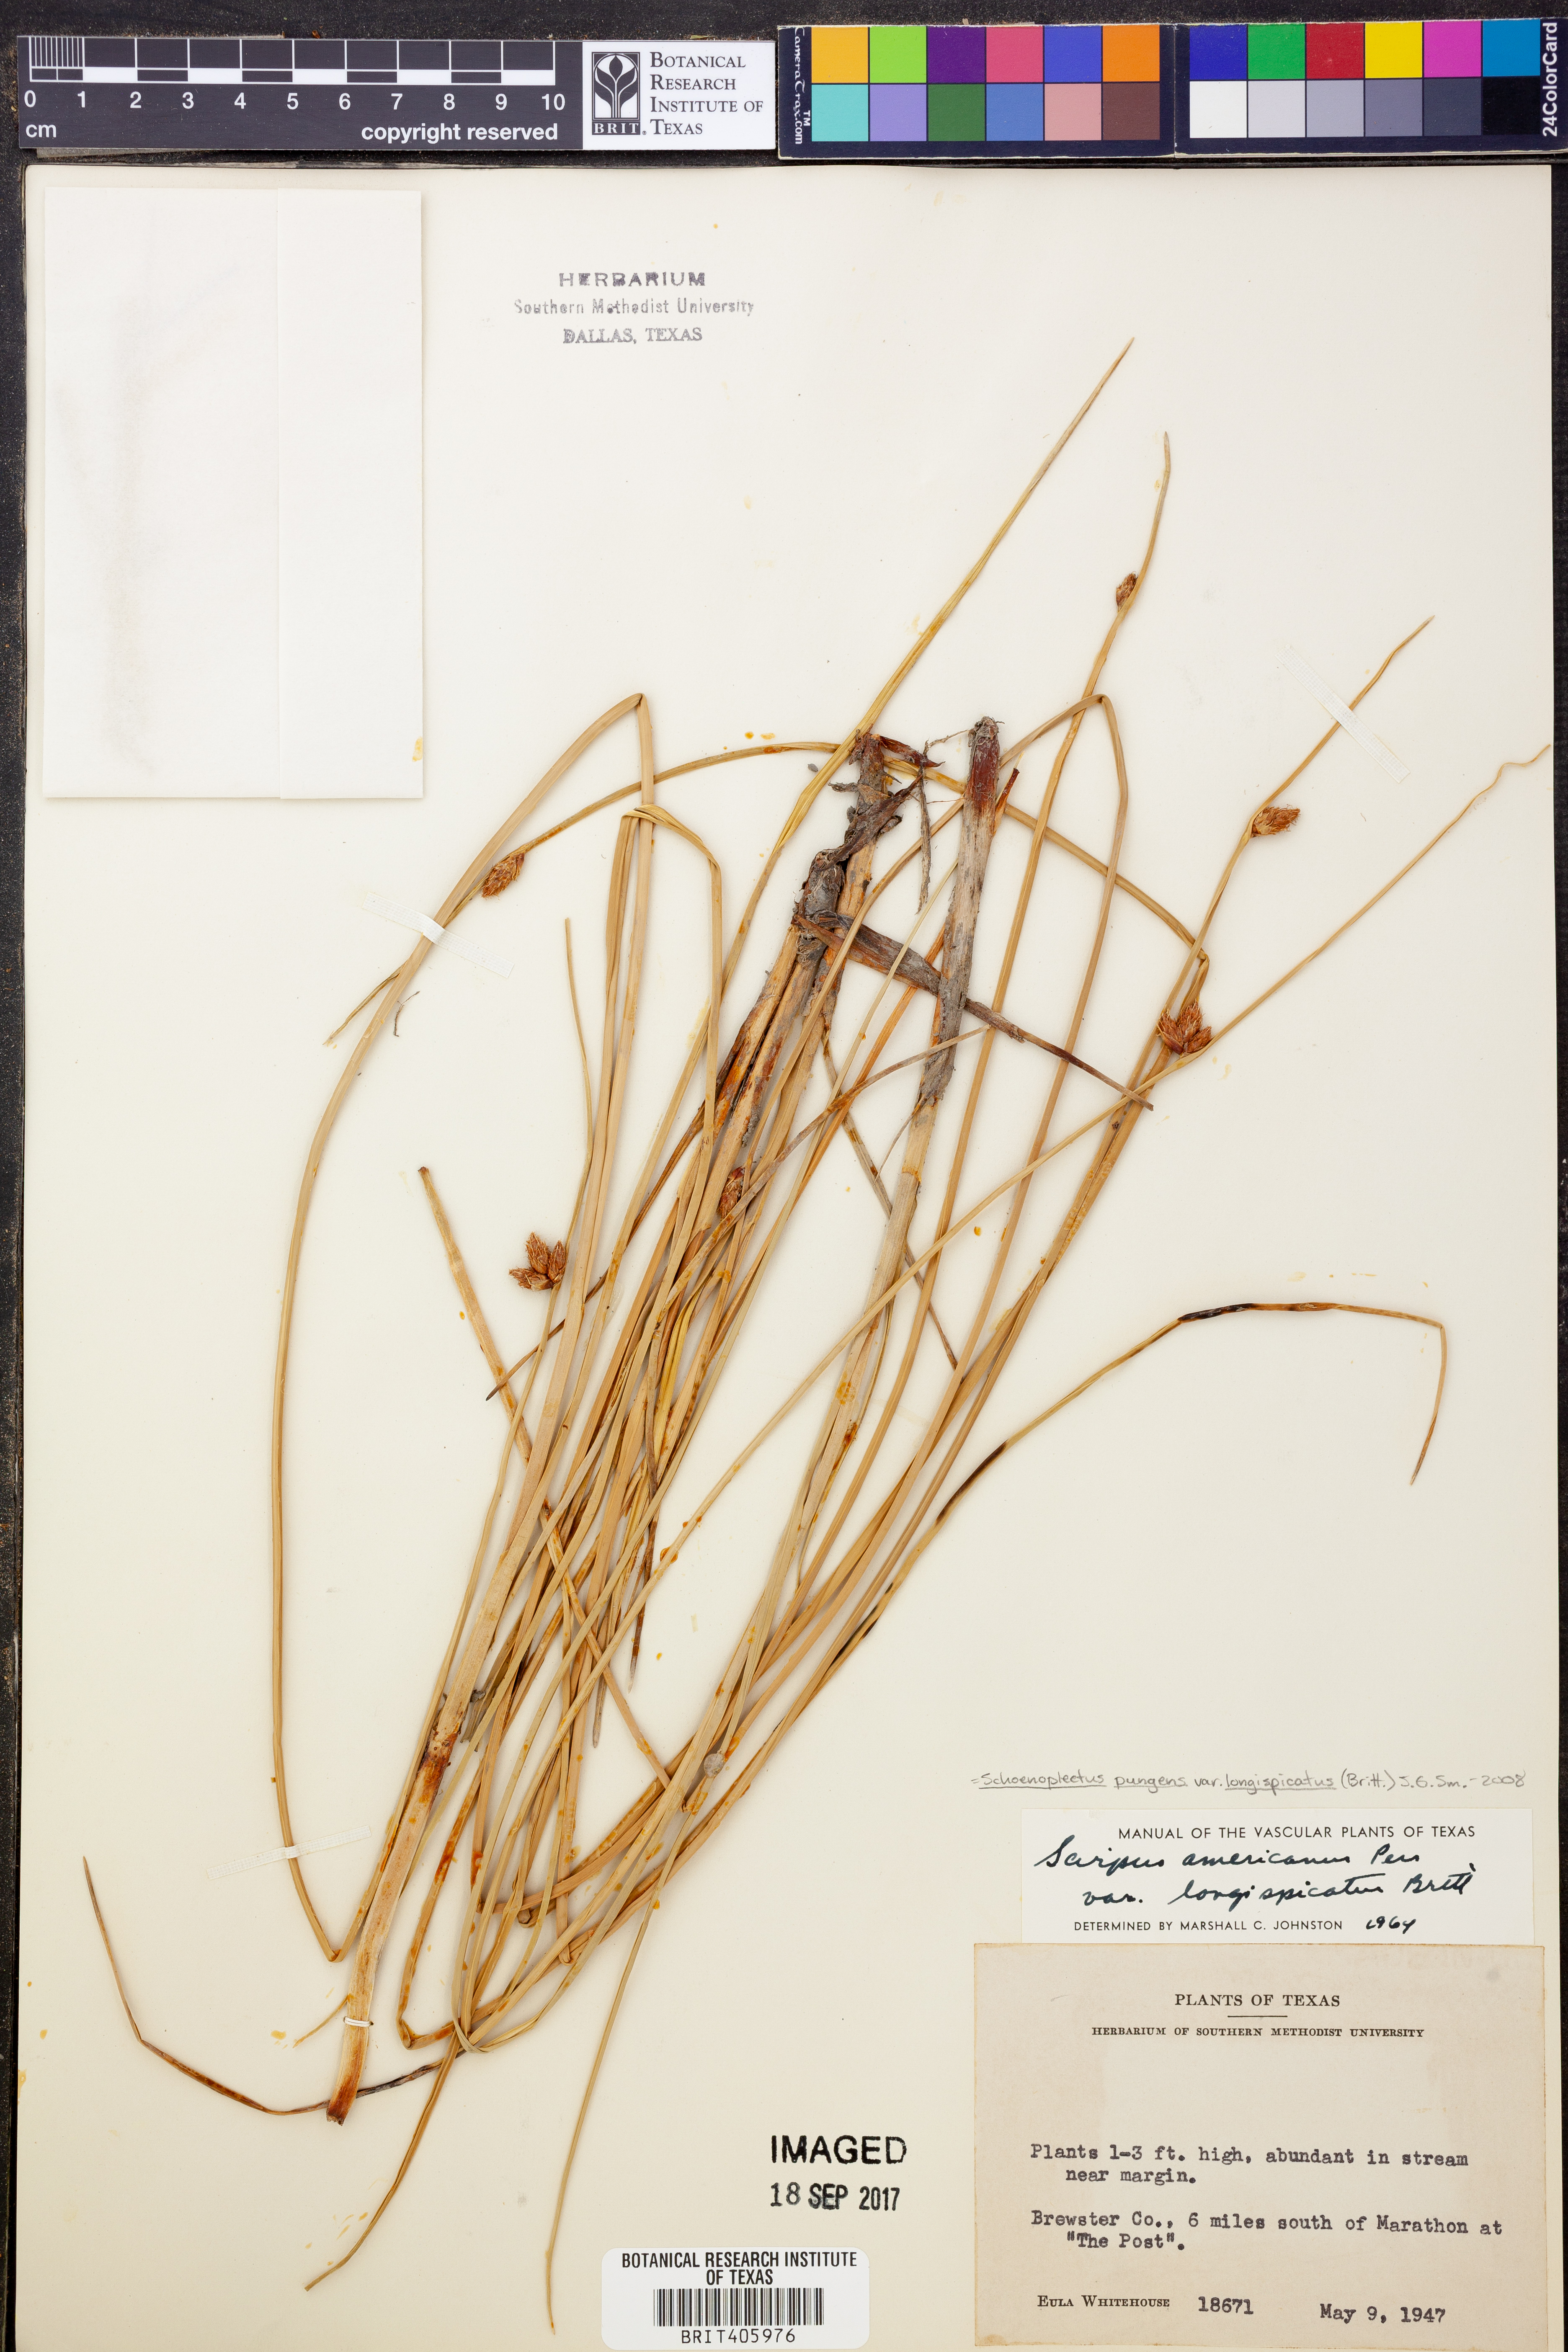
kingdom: Plantae
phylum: Tracheophyta
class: Liliopsida
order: Poales
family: Cyperaceae
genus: Schoenoplectus
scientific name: Schoenoplectus pungens
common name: Sharp club-rush
